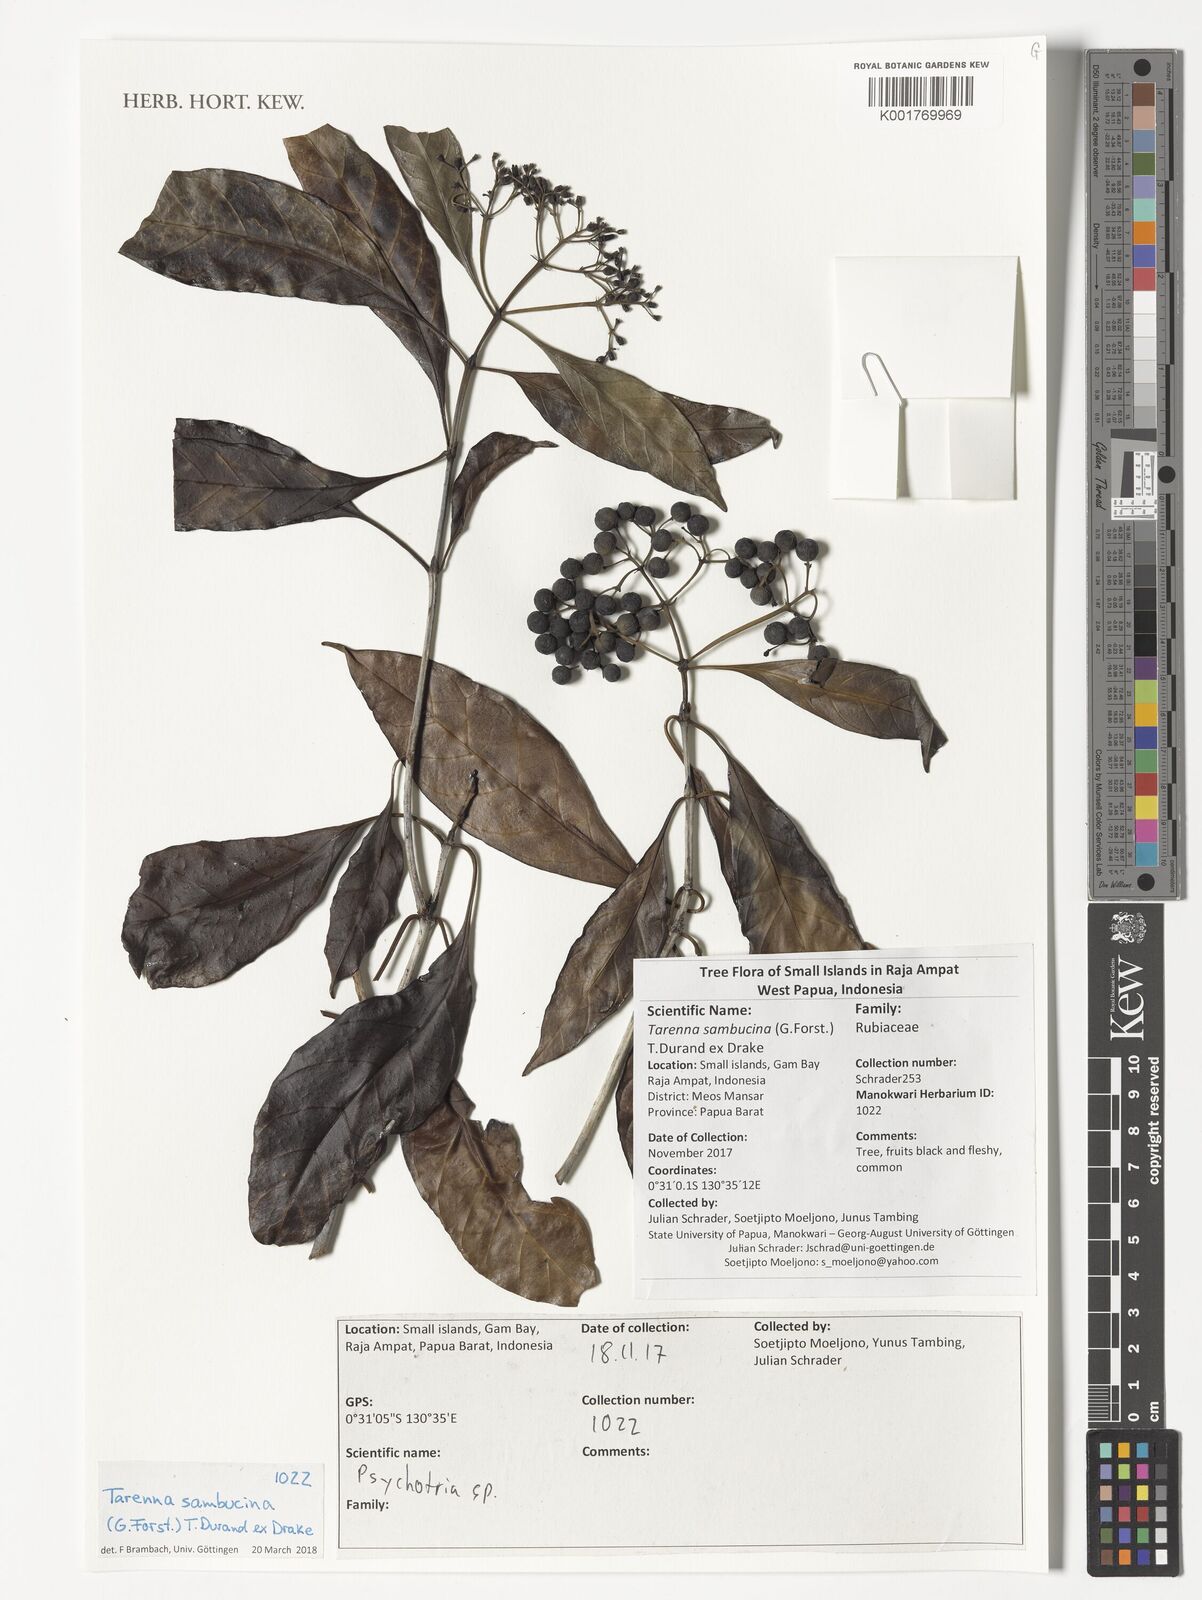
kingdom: Plantae
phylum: Tracheophyta
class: Magnoliopsida
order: Gentianales
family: Rubiaceae
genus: Tarenna
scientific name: Tarenna sambucina
